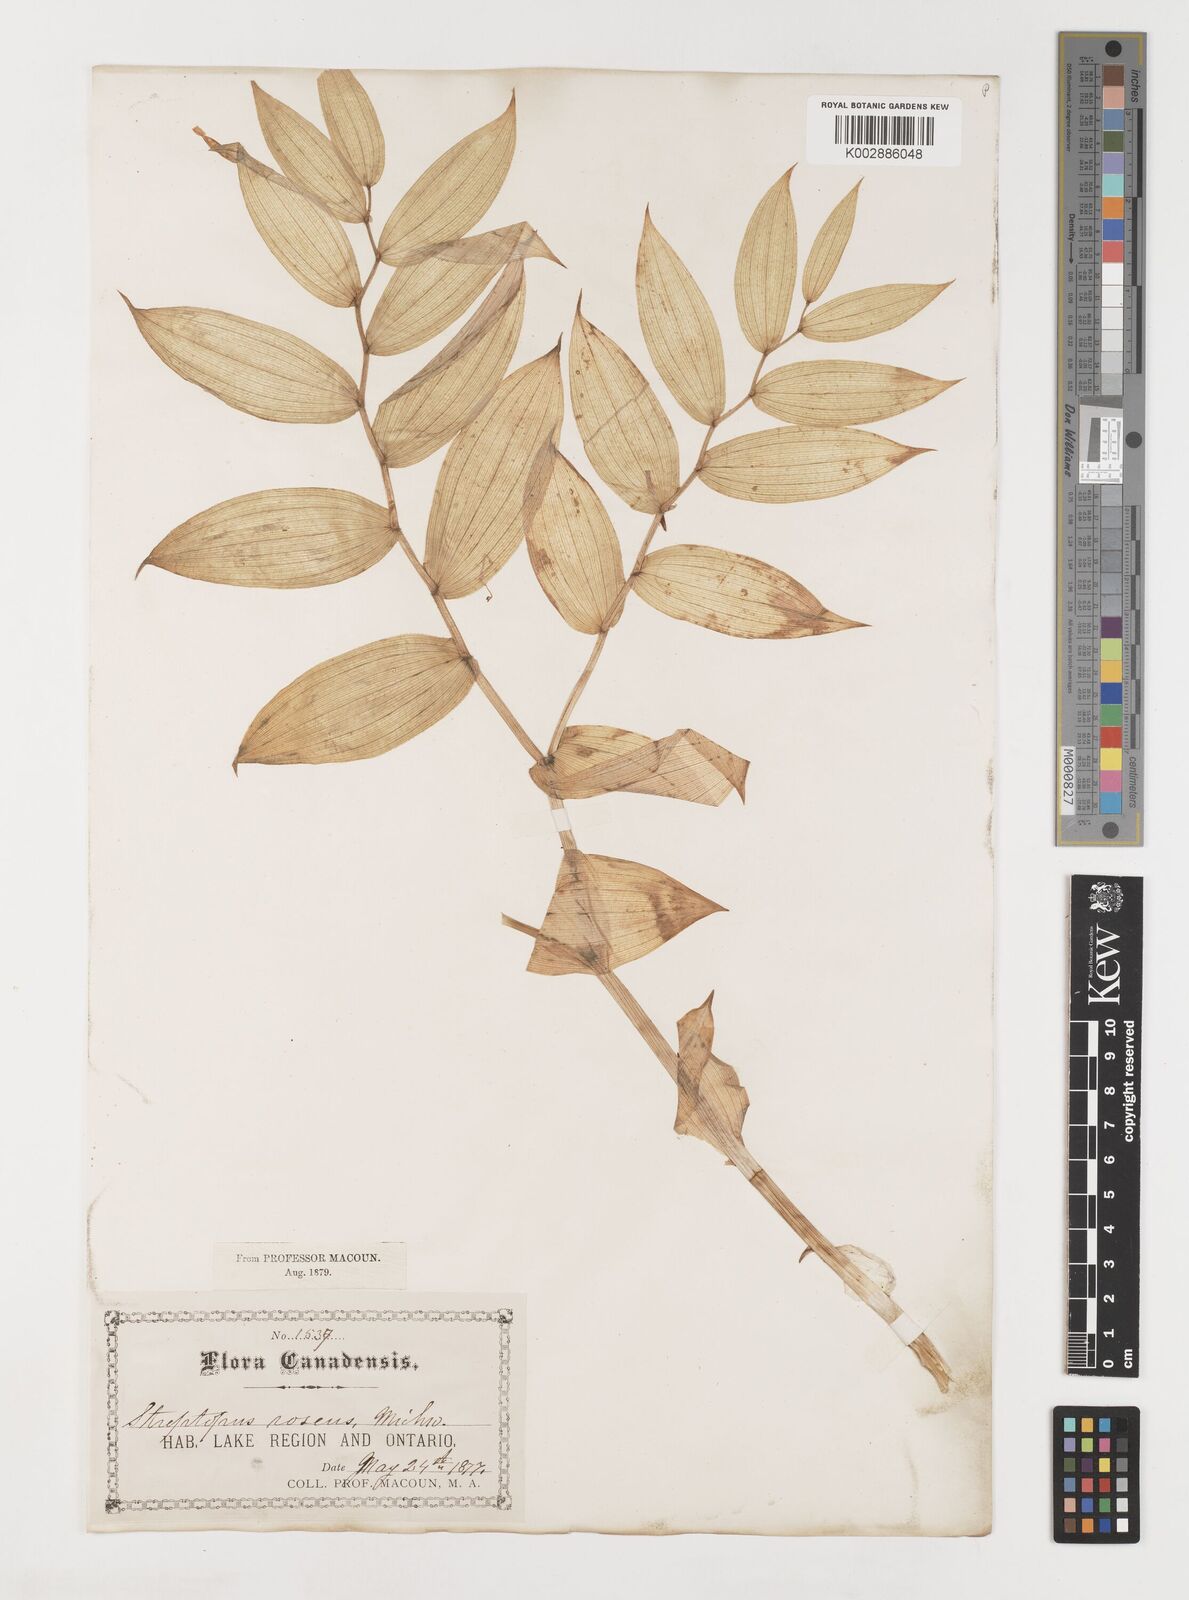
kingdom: Plantae
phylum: Tracheophyta
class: Liliopsida
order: Liliales
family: Liliaceae
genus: Streptopus
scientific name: Streptopus lanceolatus
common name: Rose mandarin
